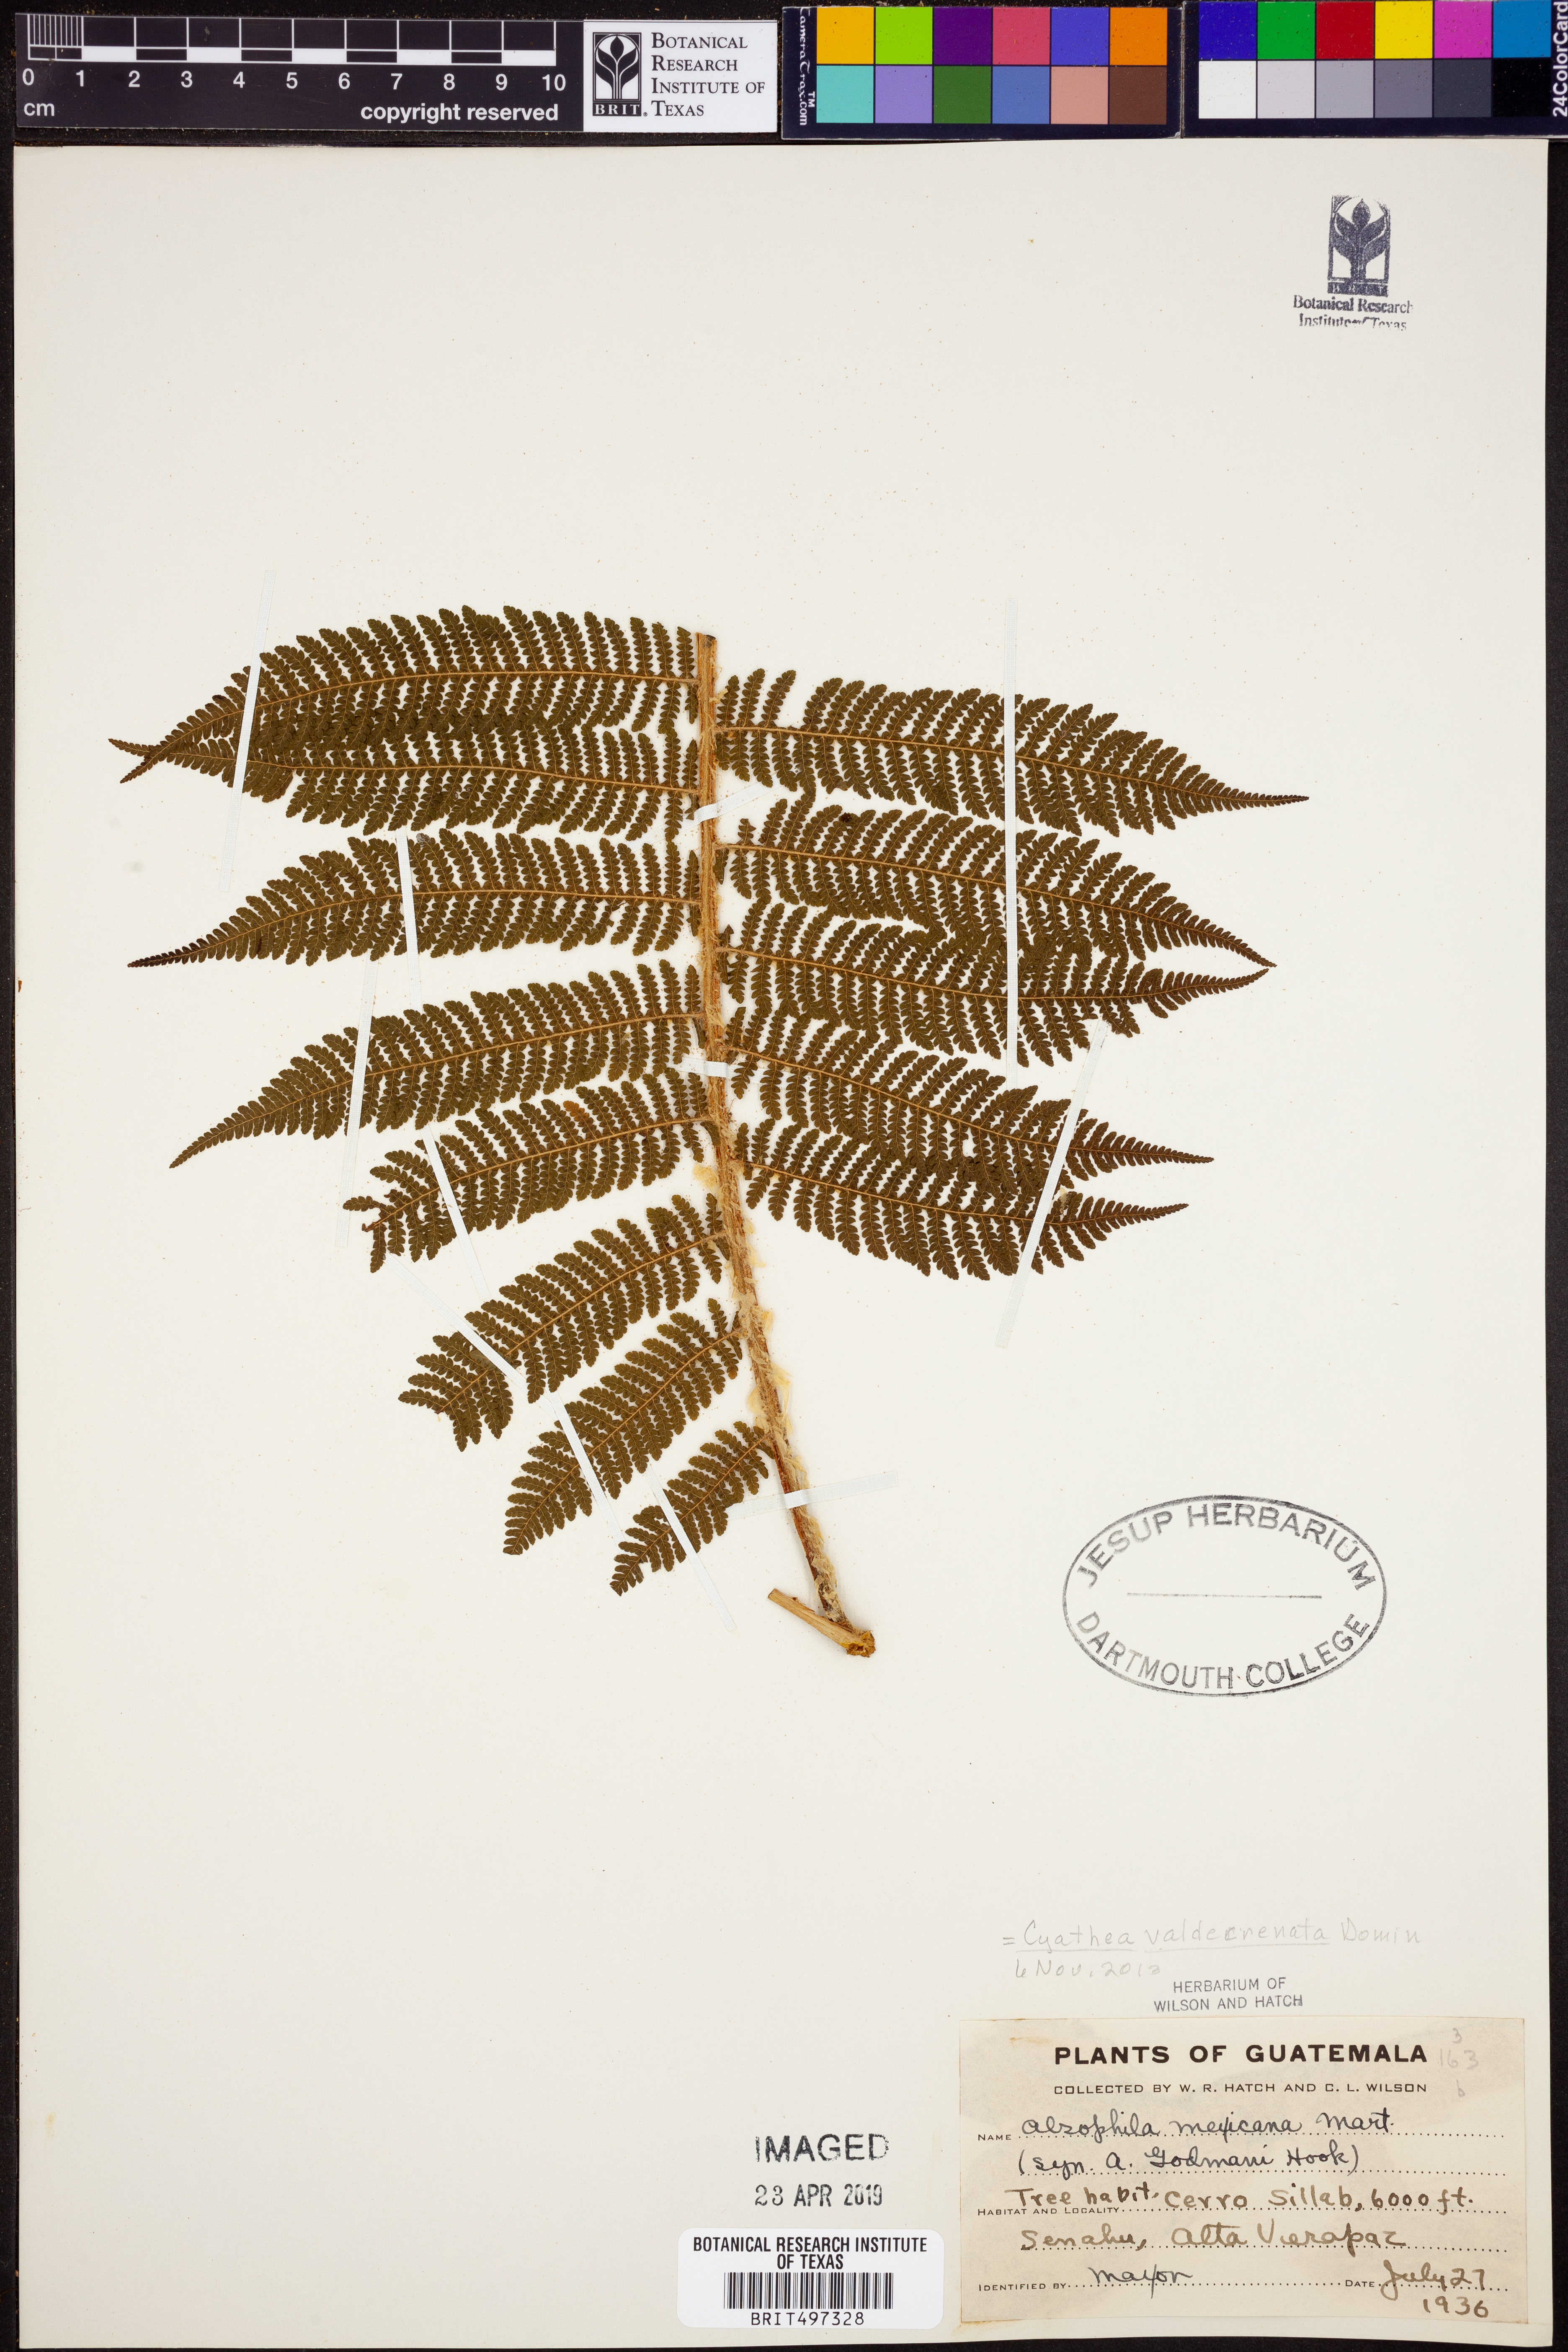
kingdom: Plantae
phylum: Tracheophyta
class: Polypodiopsida
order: Cyatheales
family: Cyatheaceae
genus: Cyathea
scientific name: Cyathea godmanii
